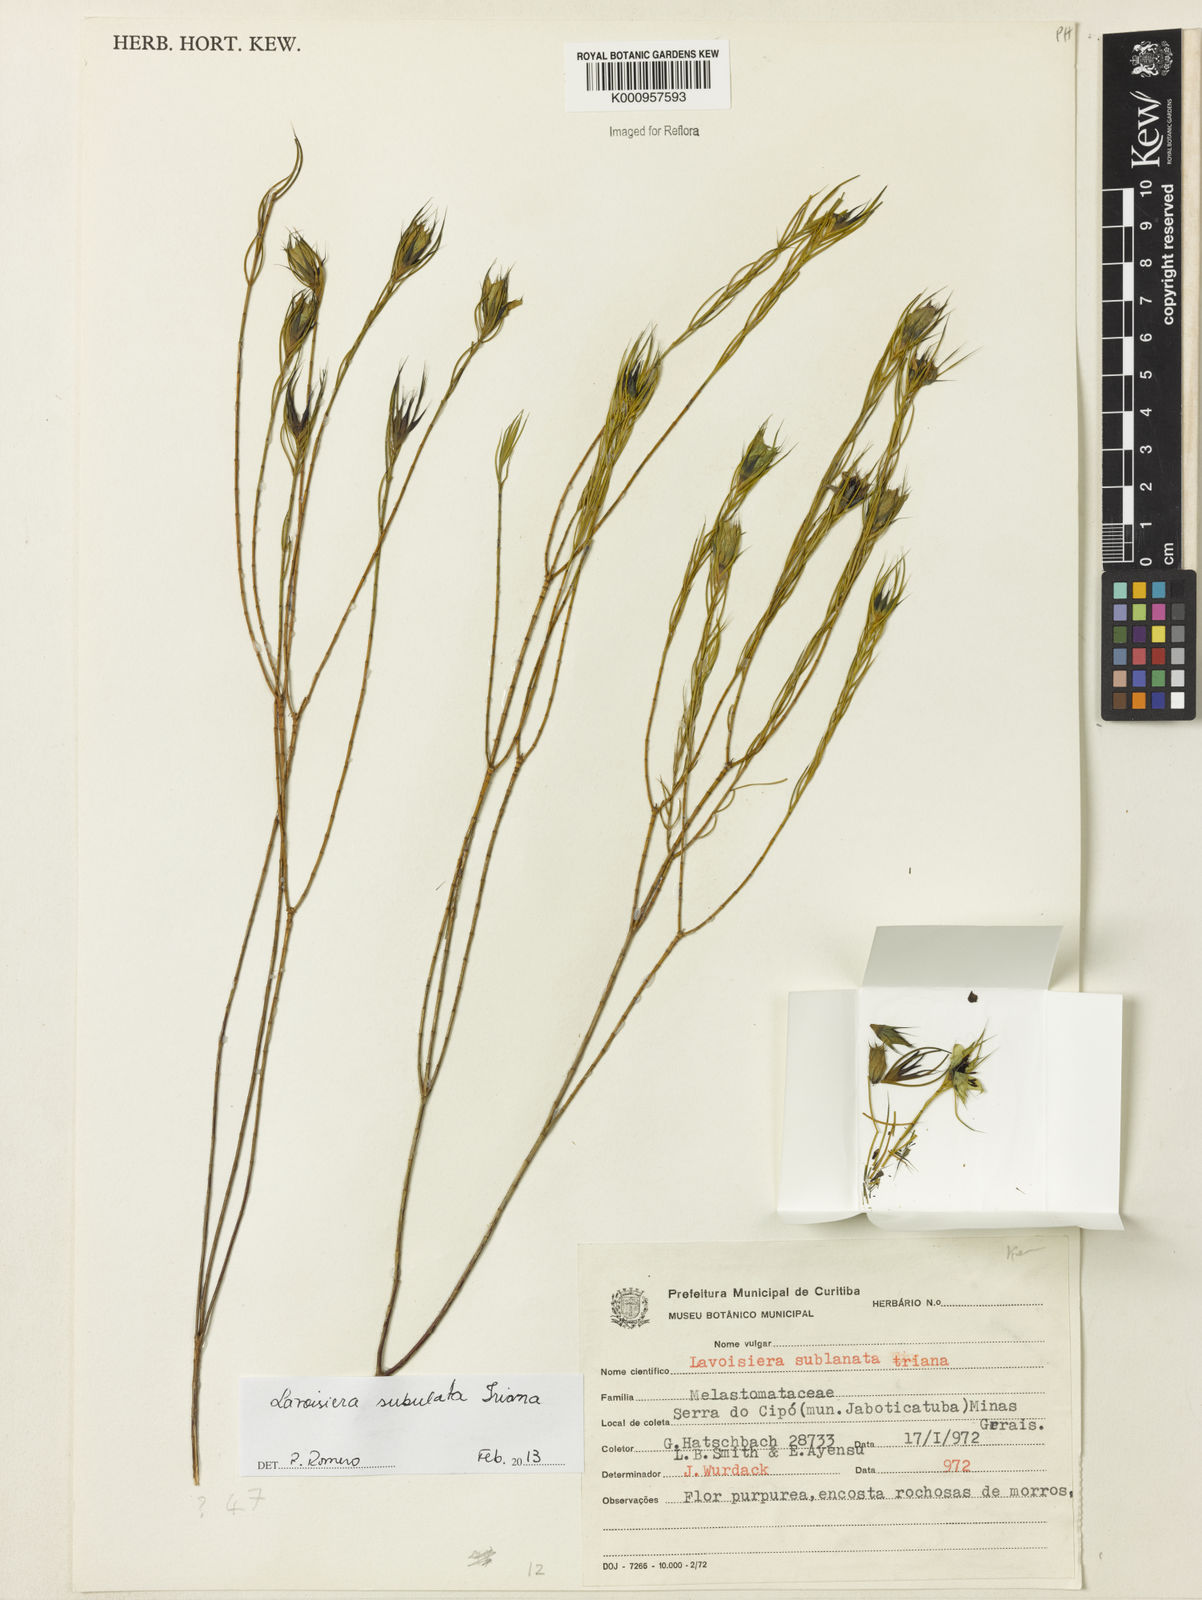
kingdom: Plantae
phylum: Tracheophyta
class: Magnoliopsida
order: Myrtales
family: Melastomataceae
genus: Microlicia
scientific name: Microlicia subulata
